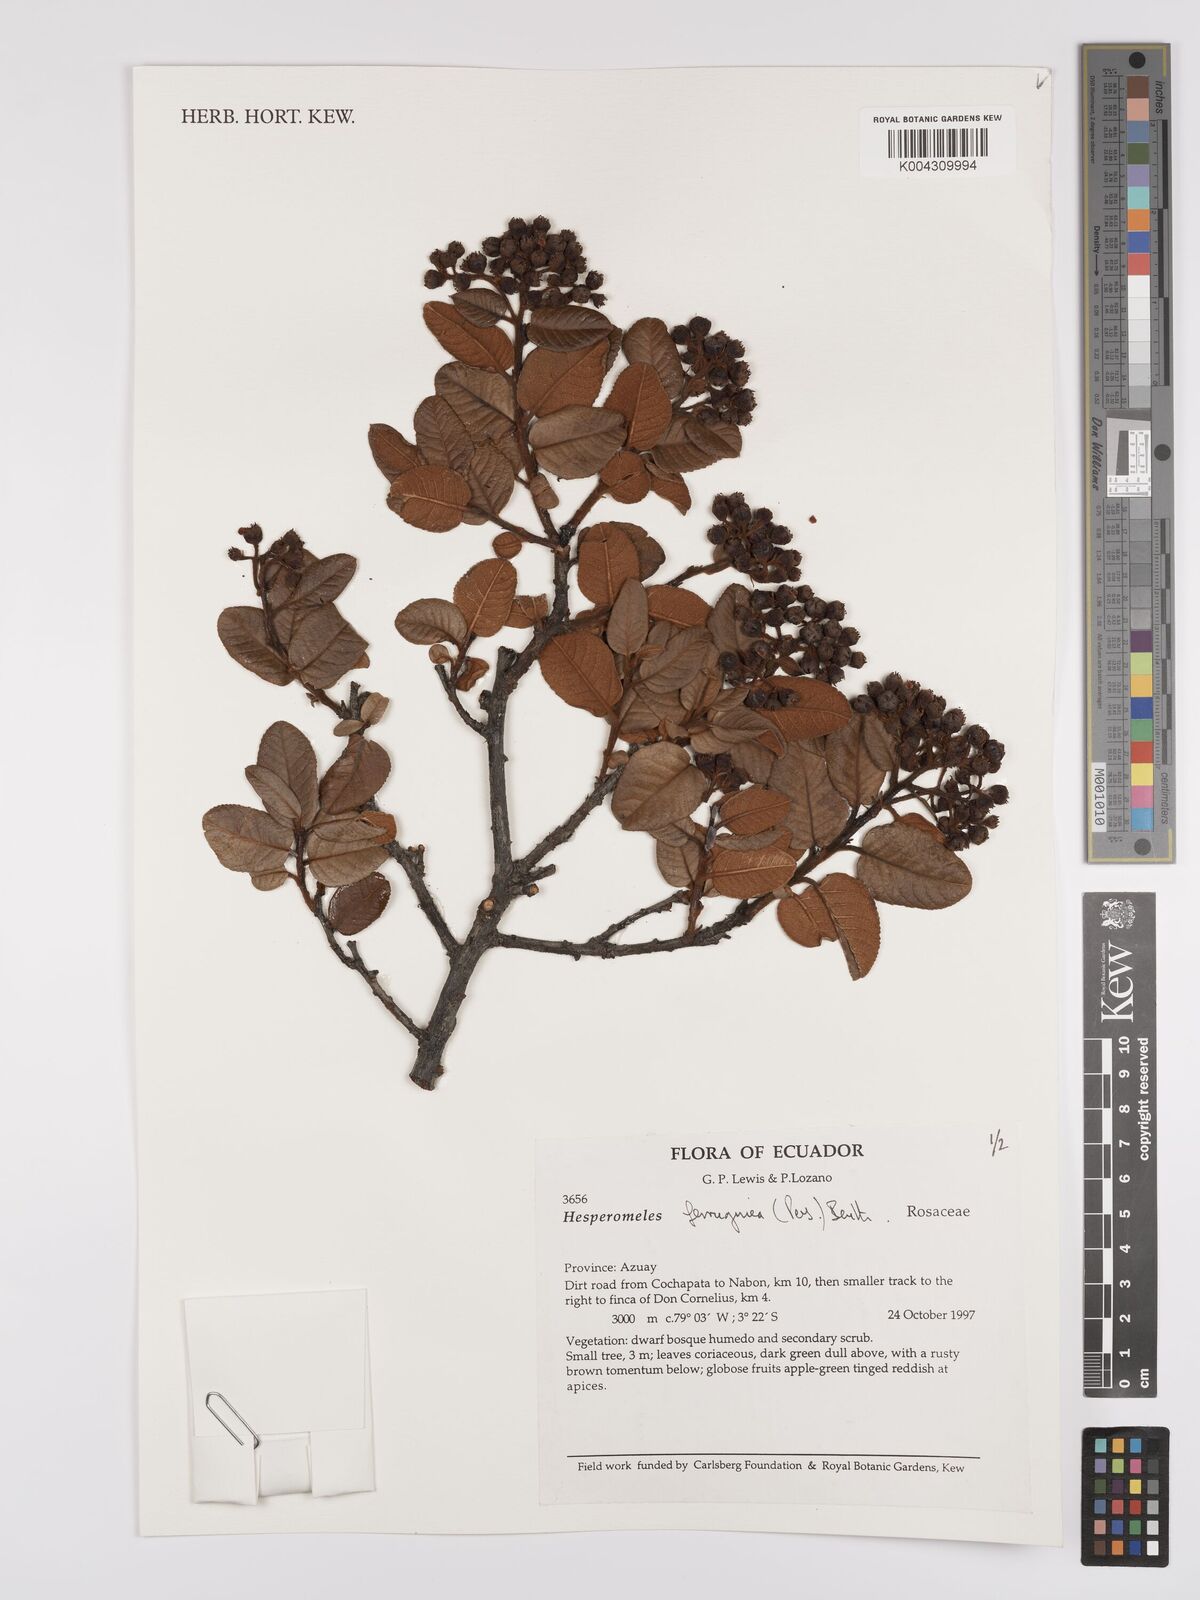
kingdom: Plantae
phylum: Tracheophyta
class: Magnoliopsida
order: Rosales
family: Rosaceae
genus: Hesperomeles
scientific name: Hesperomeles ferruginea
